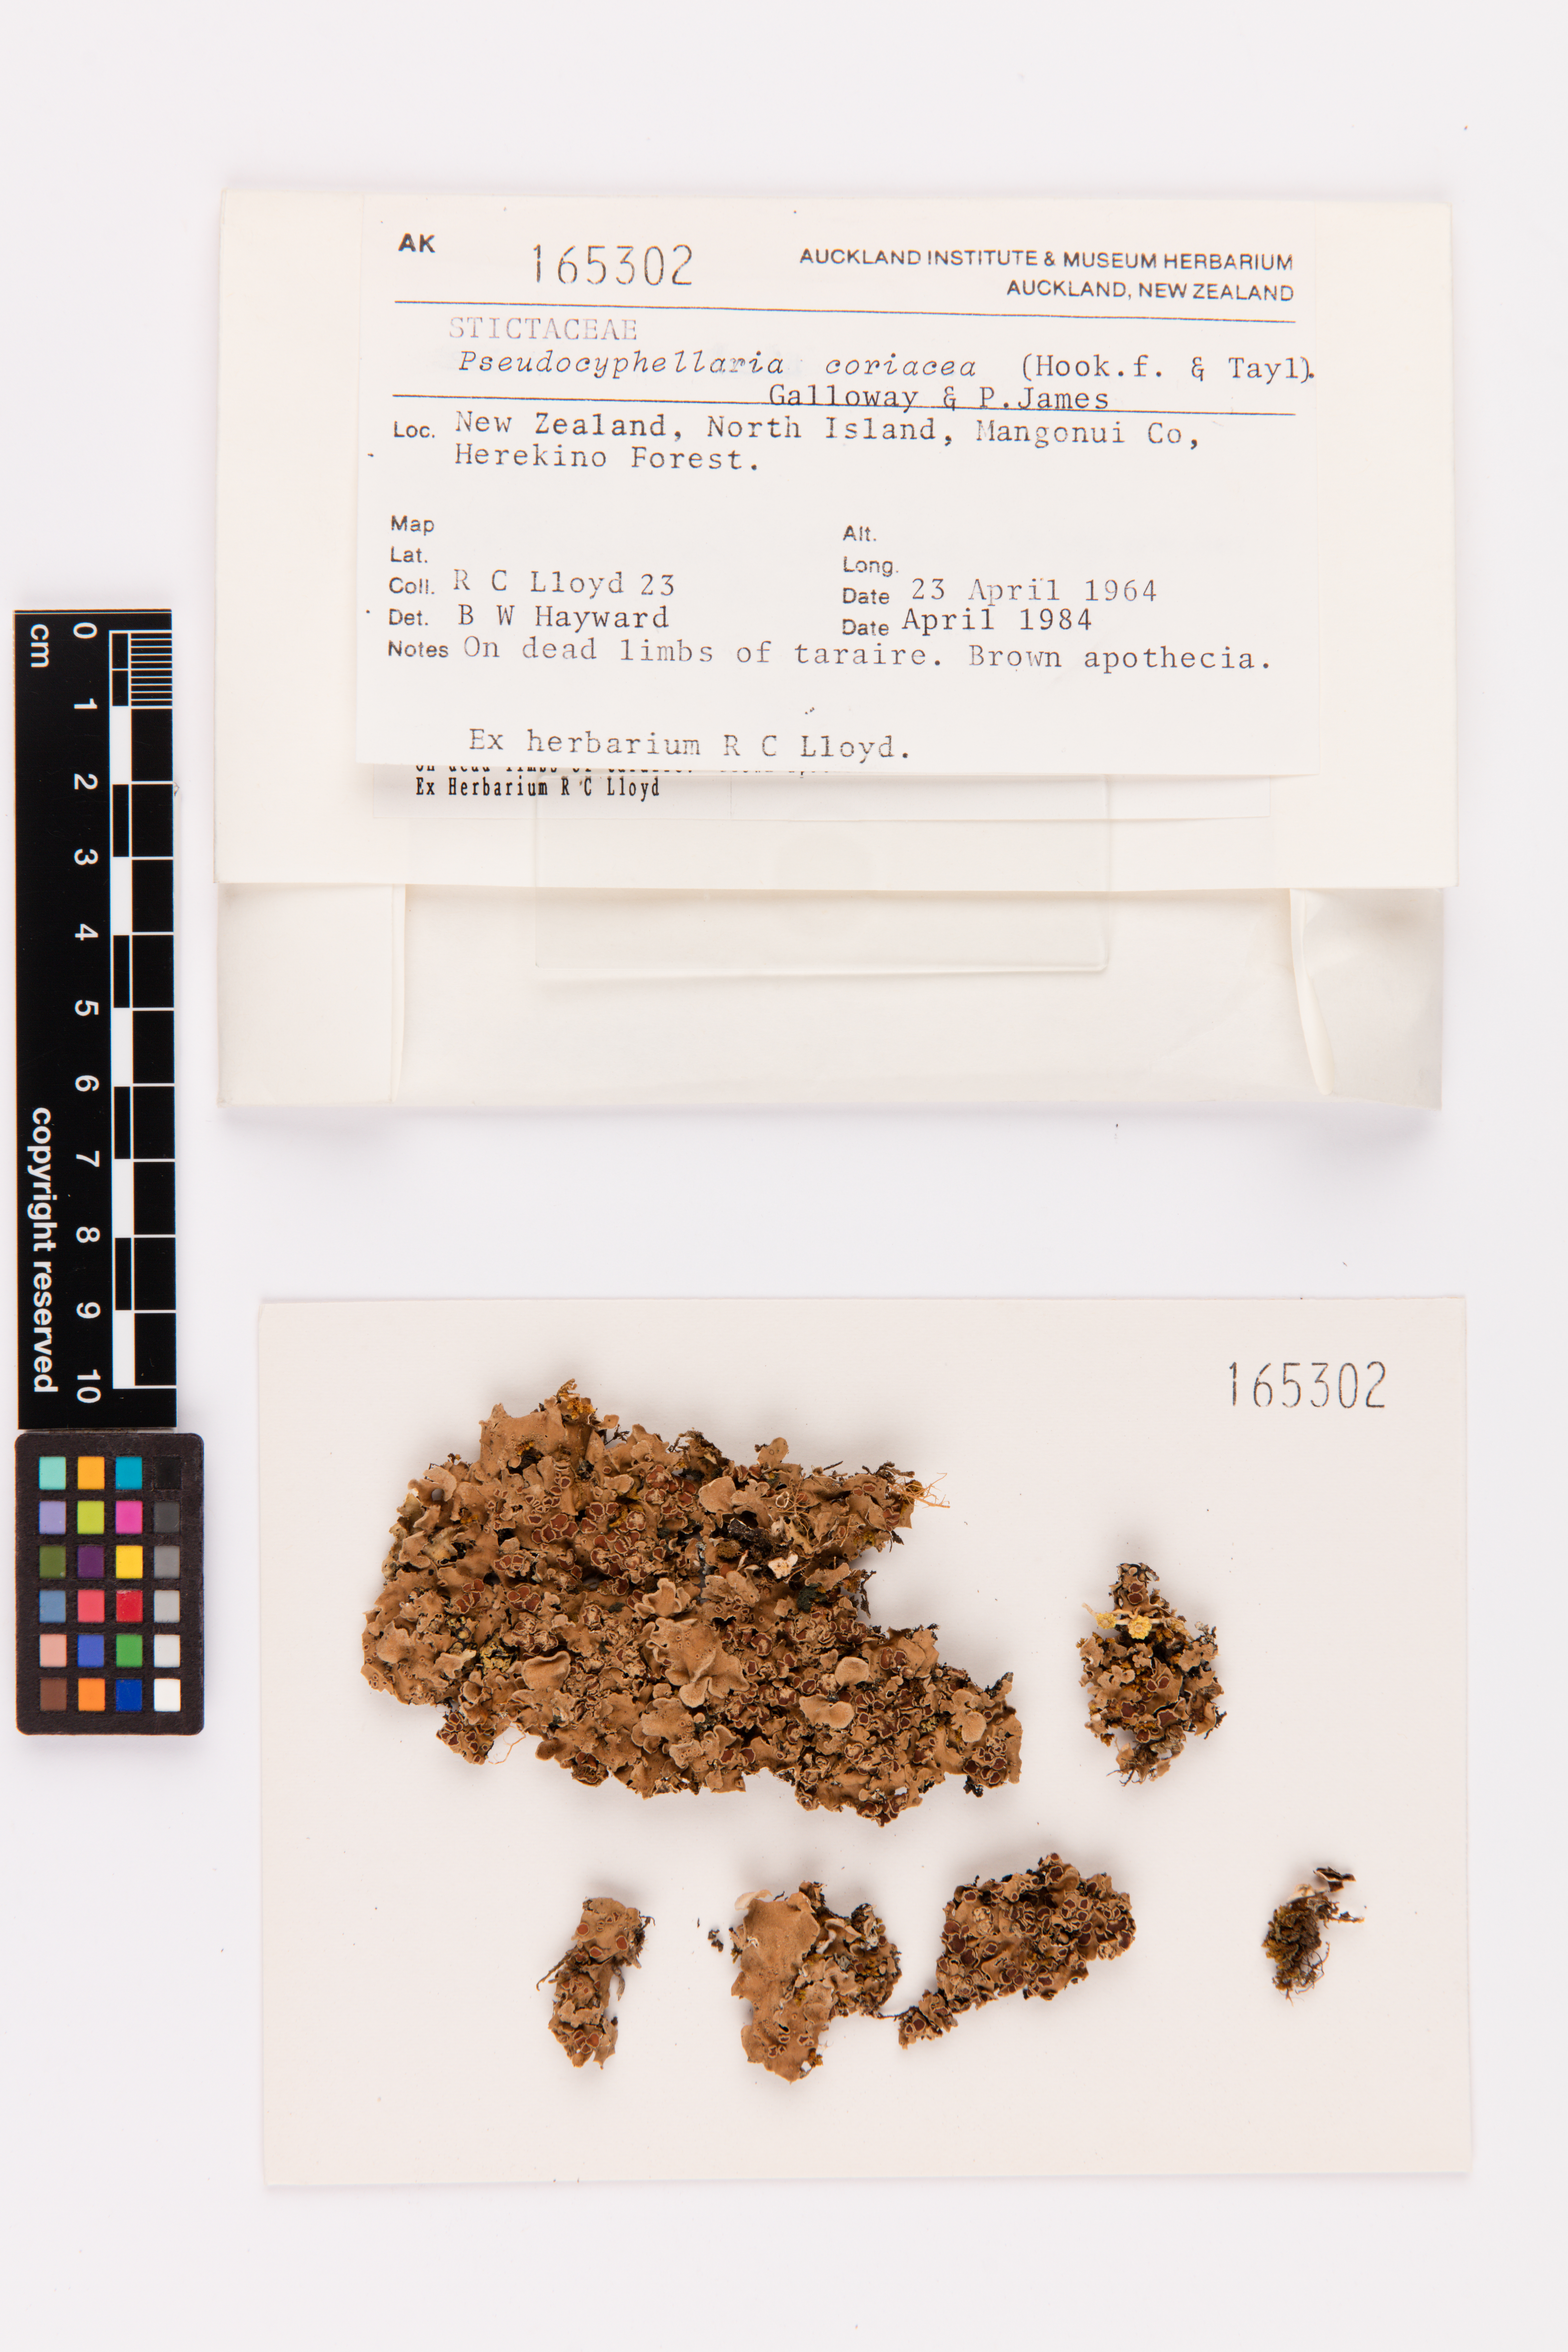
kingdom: Fungi
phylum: Ascomycota
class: Lecanoromycetes
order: Peltigerales
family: Lobariaceae
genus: Pseudocyphellaria
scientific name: Pseudocyphellaria coriacea
